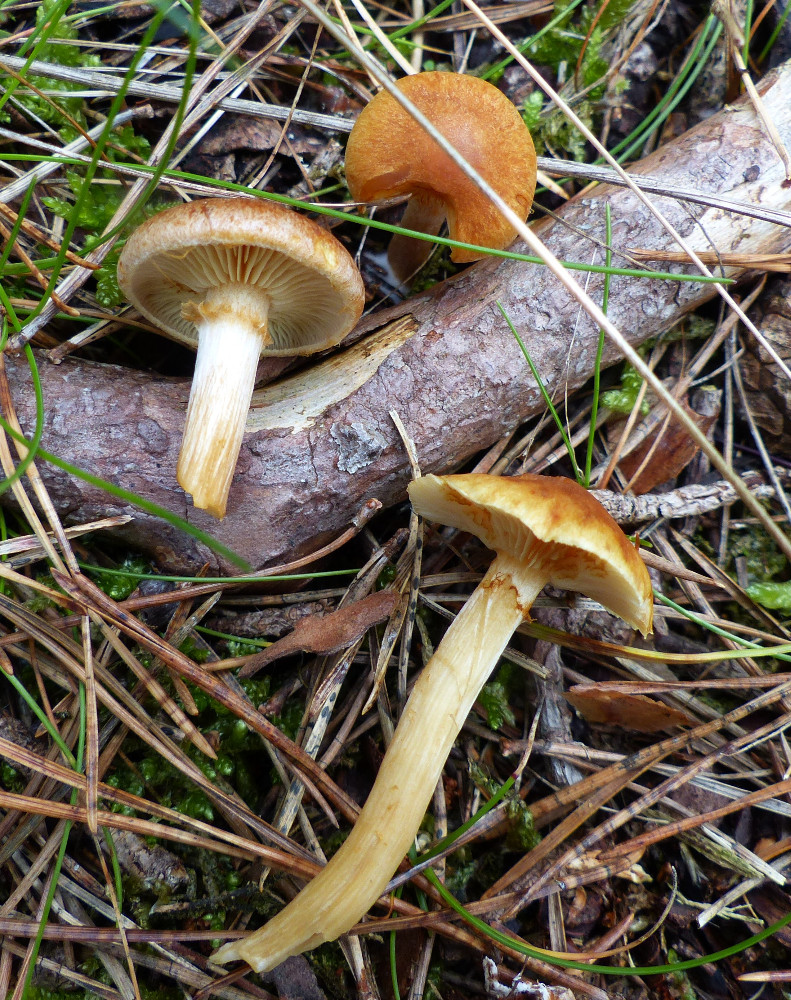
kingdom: Fungi
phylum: Basidiomycota
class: Agaricomycetes
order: Agaricales
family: Hymenogastraceae
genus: Gymnopilus
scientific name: Gymnopilus penetrans
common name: plettet flammehat
